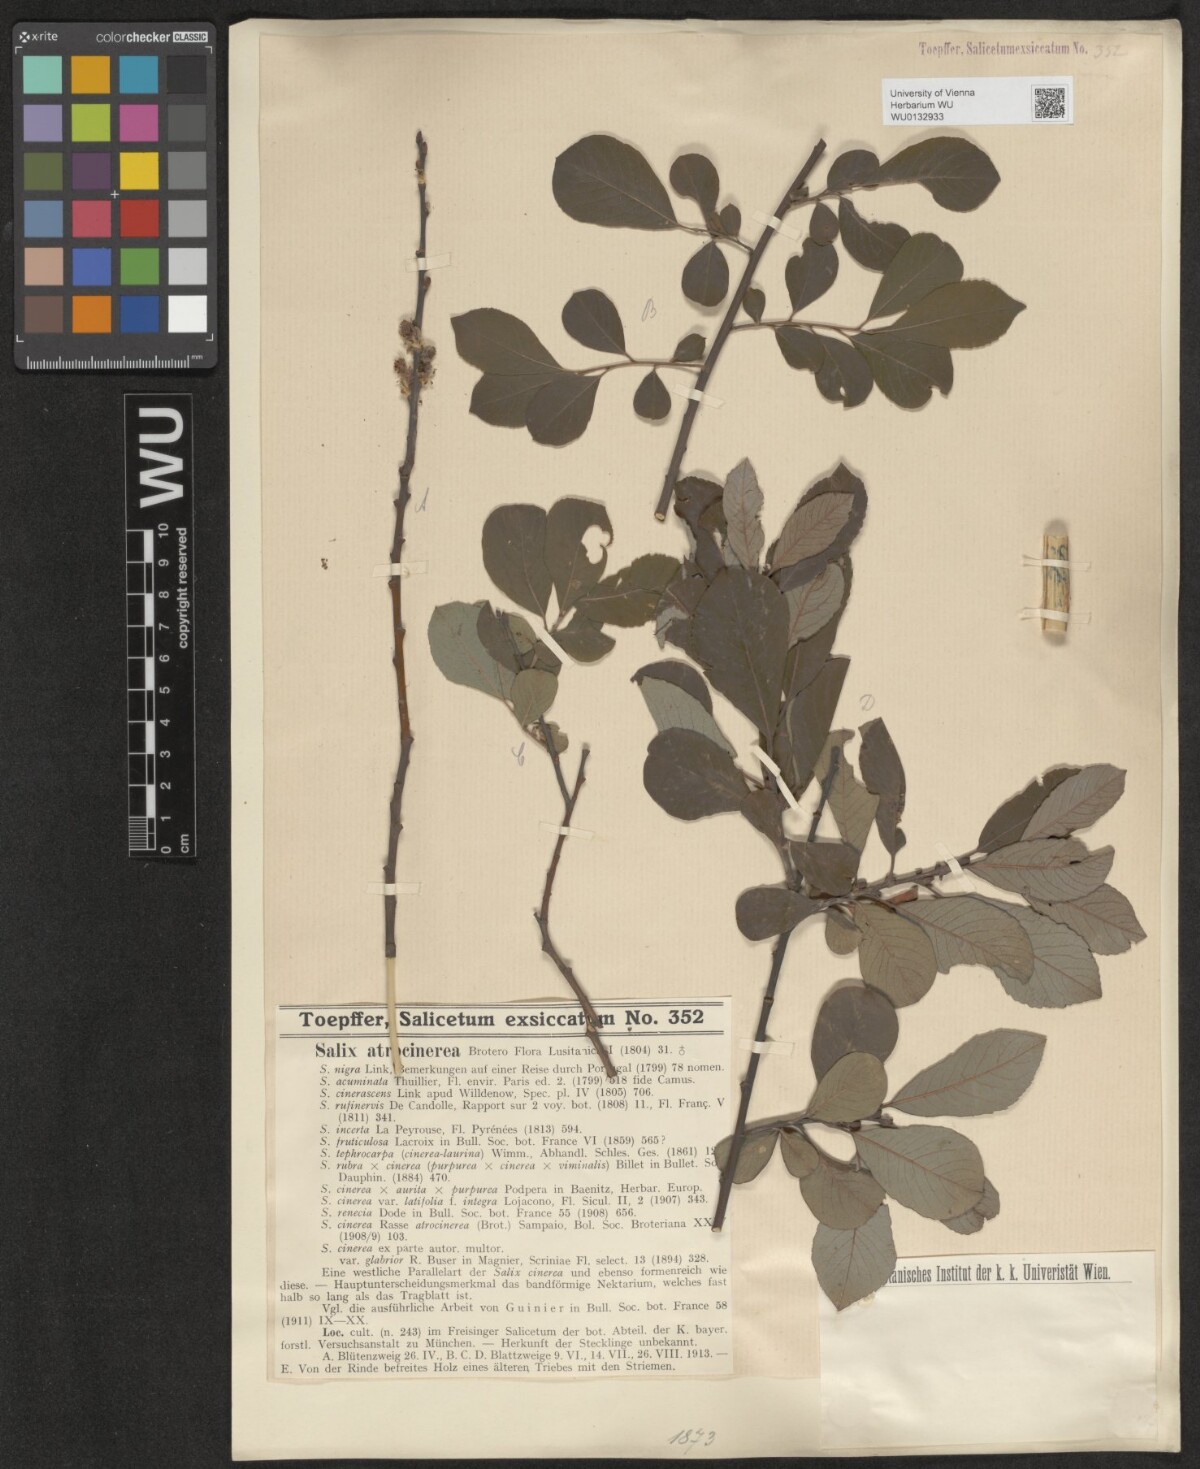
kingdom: Plantae
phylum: Tracheophyta
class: Magnoliopsida
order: Malpighiales
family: Salicaceae
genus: Salix
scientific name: Salix atrocinerea
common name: Rusty willow
